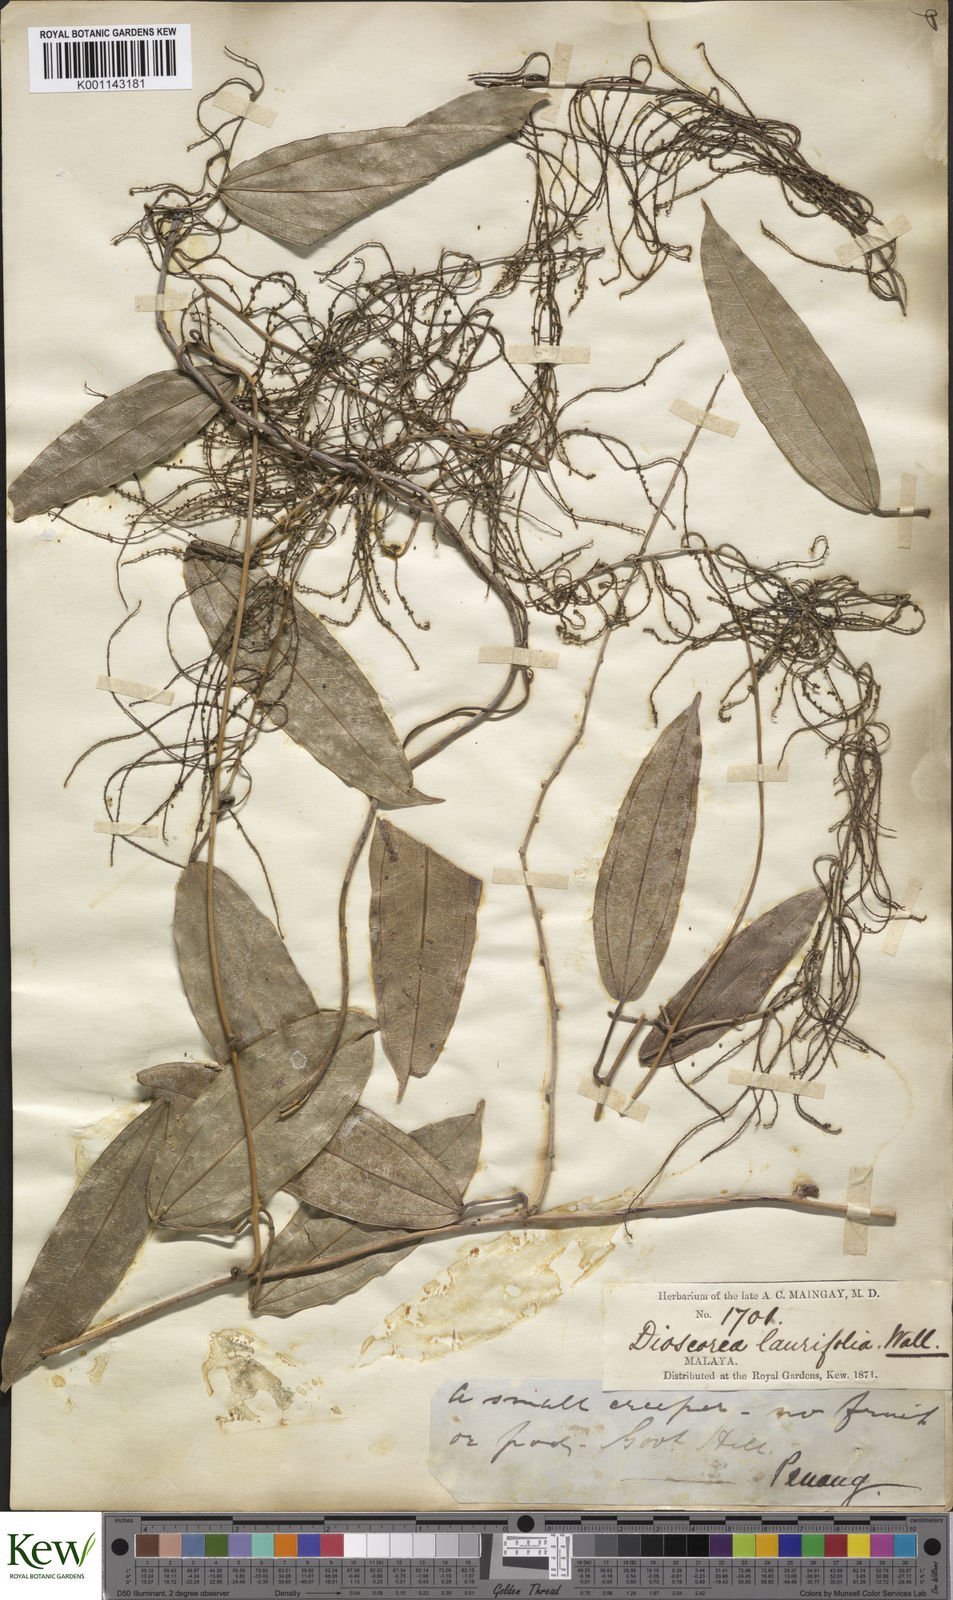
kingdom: Plantae
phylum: Tracheophyta
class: Liliopsida
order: Dioscoreales
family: Dioscoreaceae
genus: Dioscorea
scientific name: Dioscorea laurifolia
